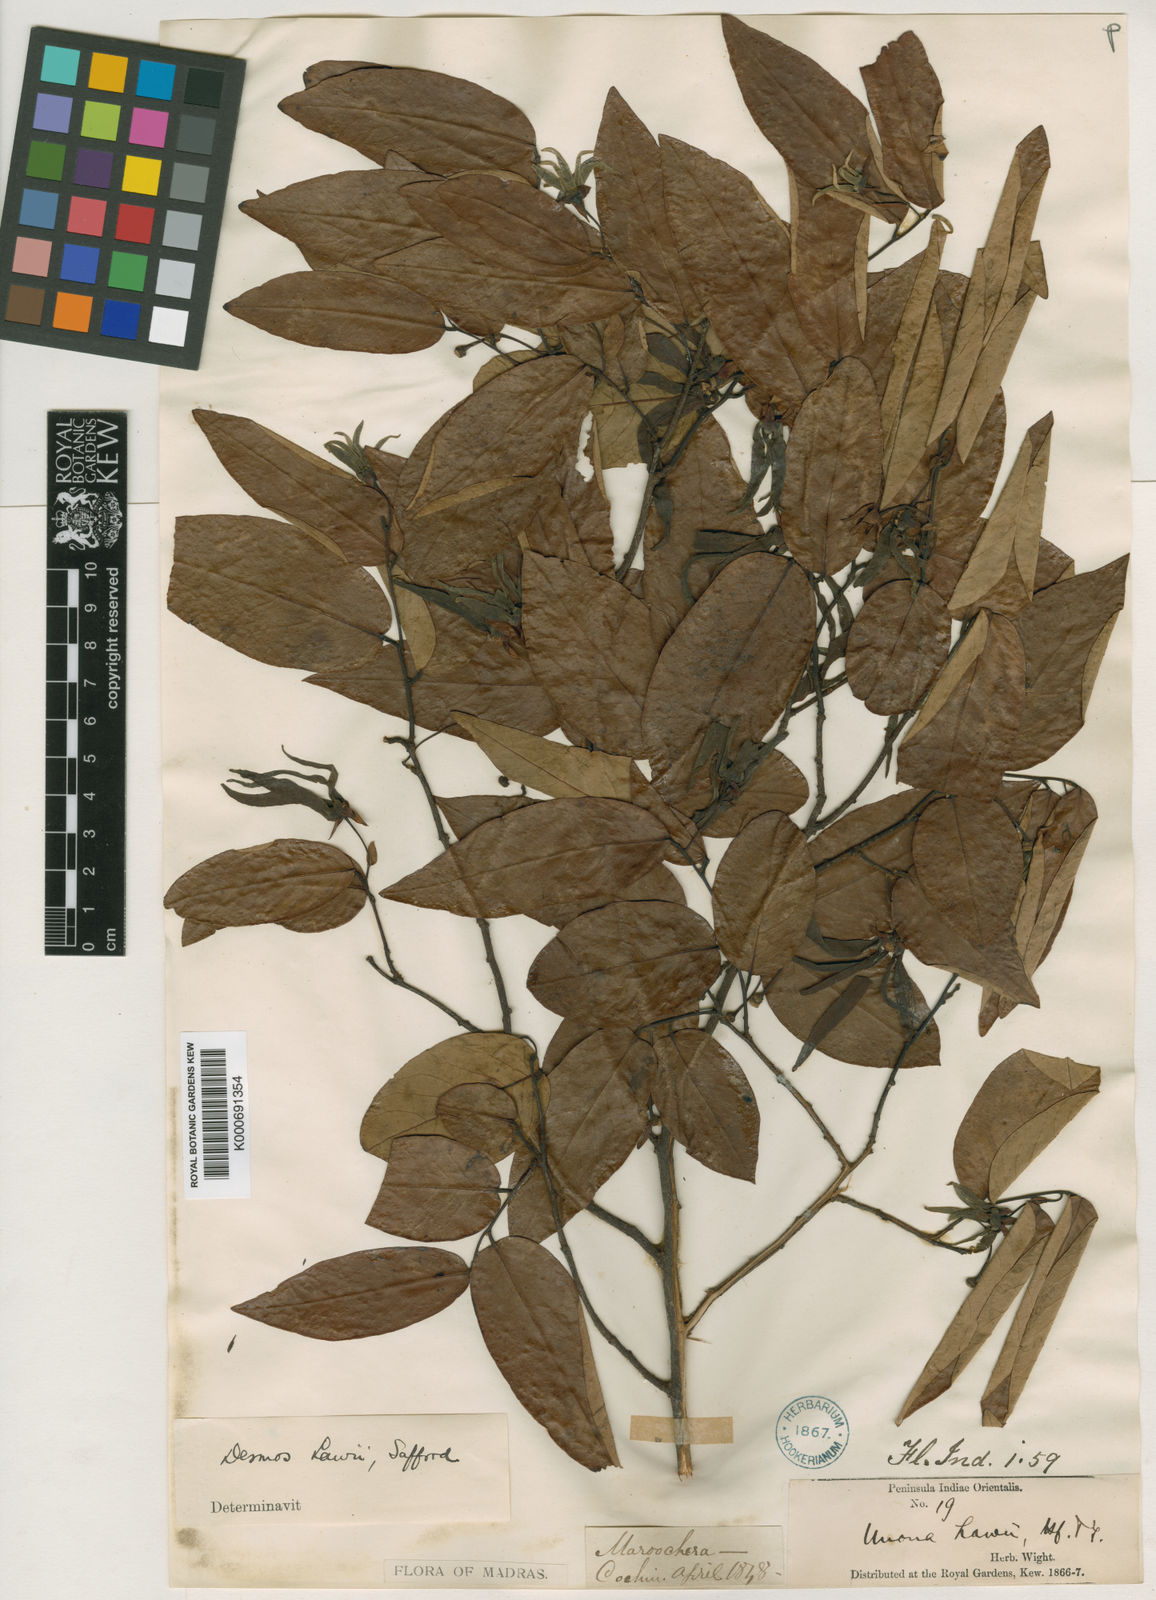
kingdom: Plantae
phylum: Tracheophyta
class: Magnoliopsida
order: Magnoliales
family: Annonaceae
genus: Desmos
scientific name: Desmos chinensis
